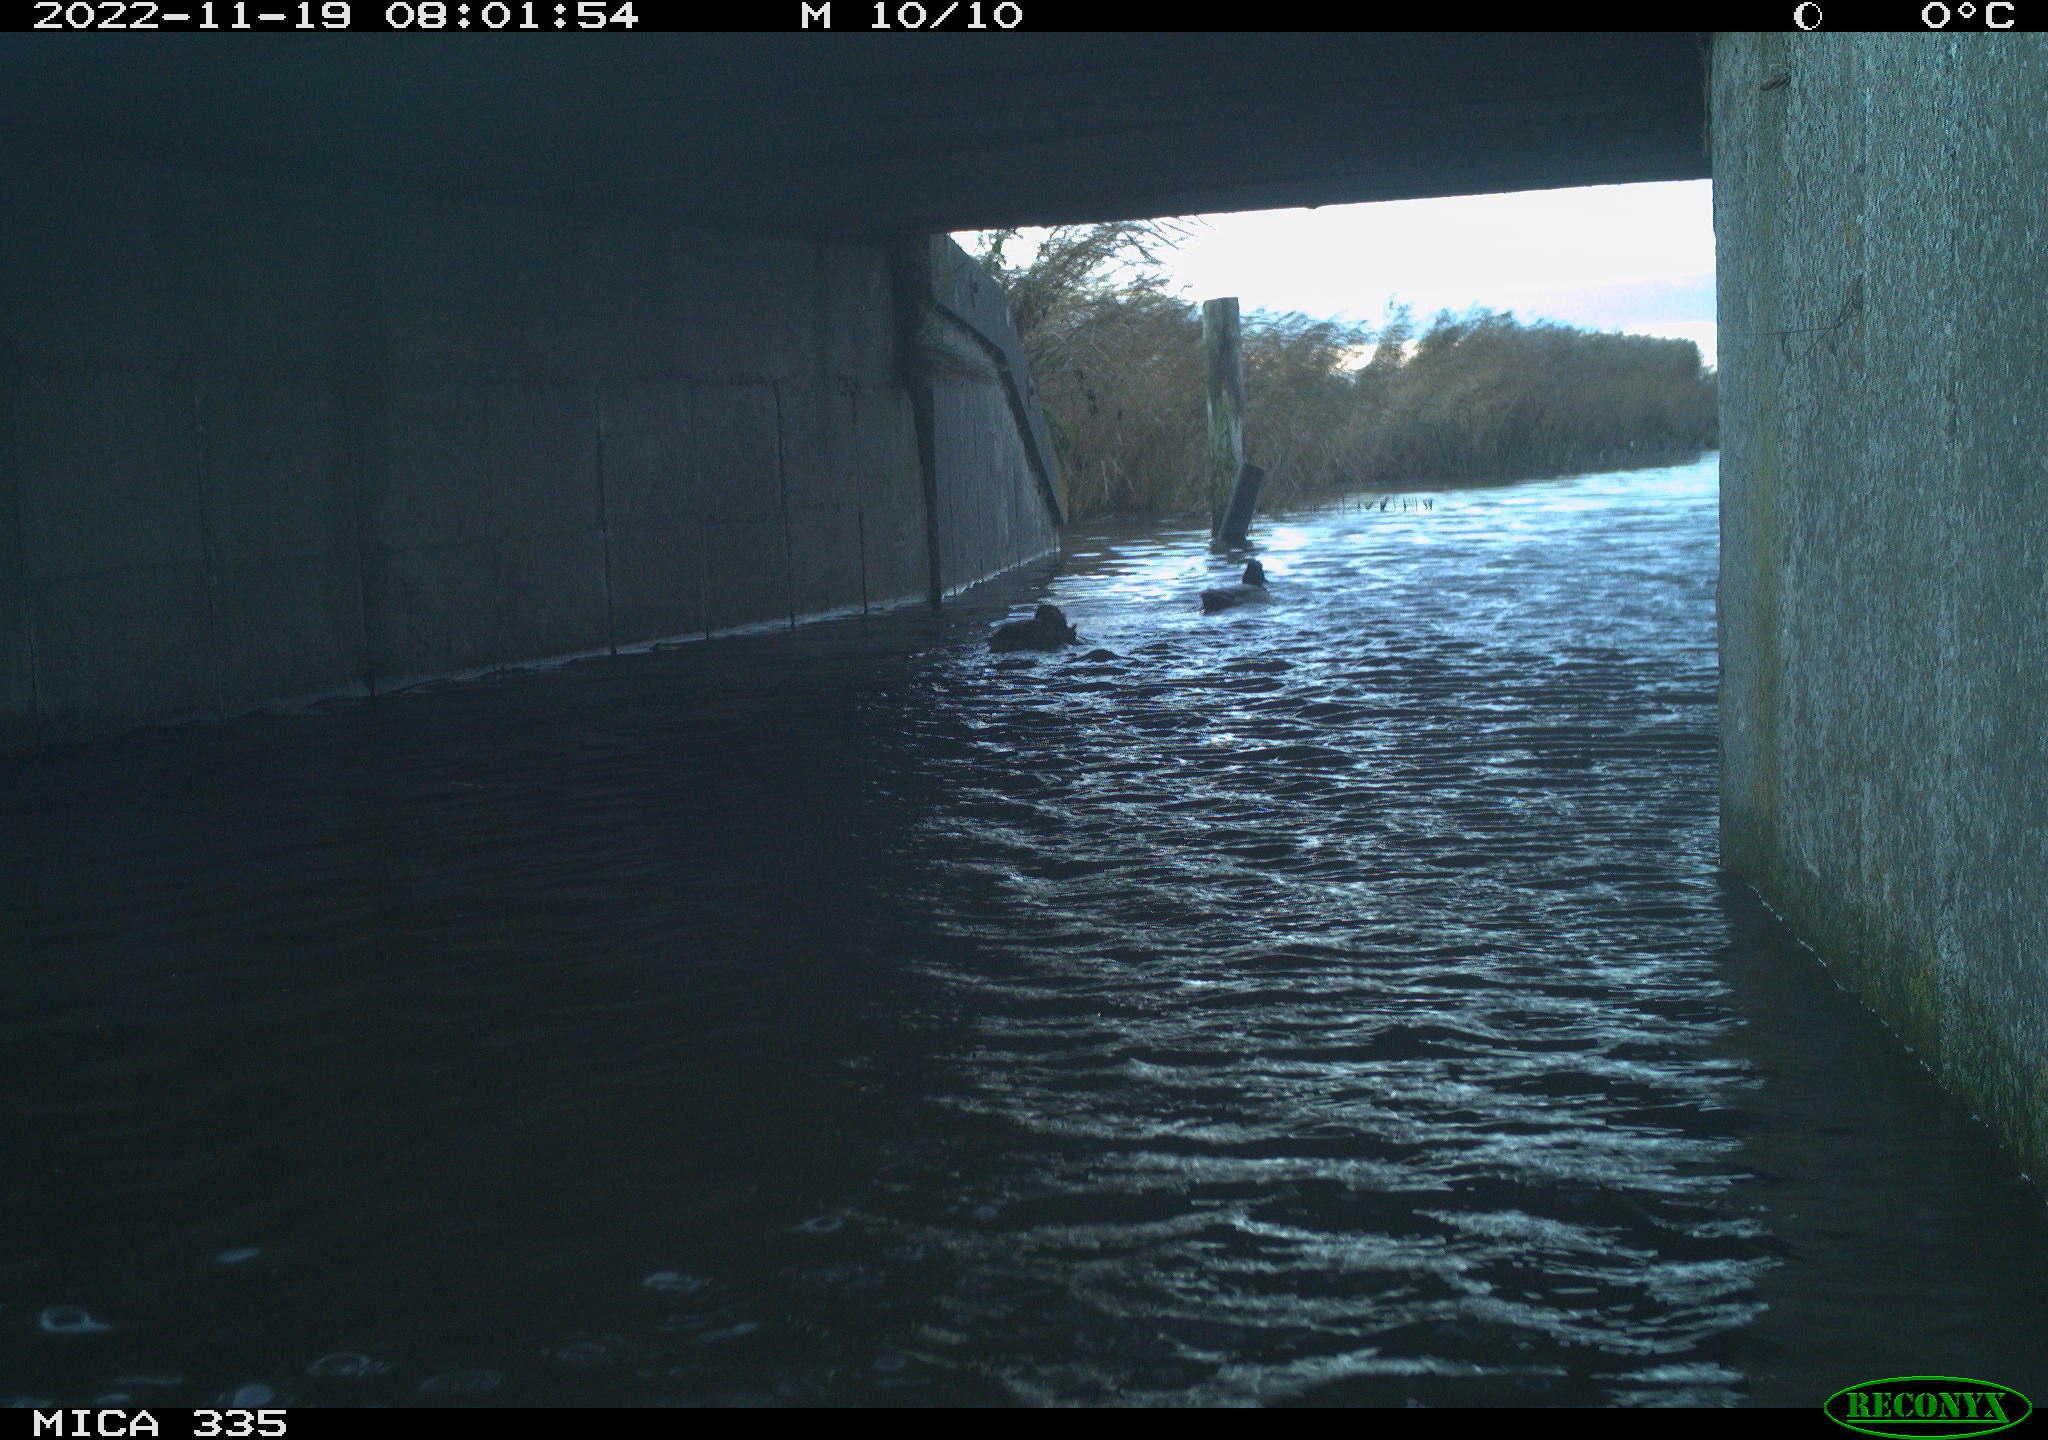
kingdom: Animalia
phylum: Chordata
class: Aves
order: Anseriformes
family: Anatidae
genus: Anas
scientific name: Anas platyrhynchos
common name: Mallard
